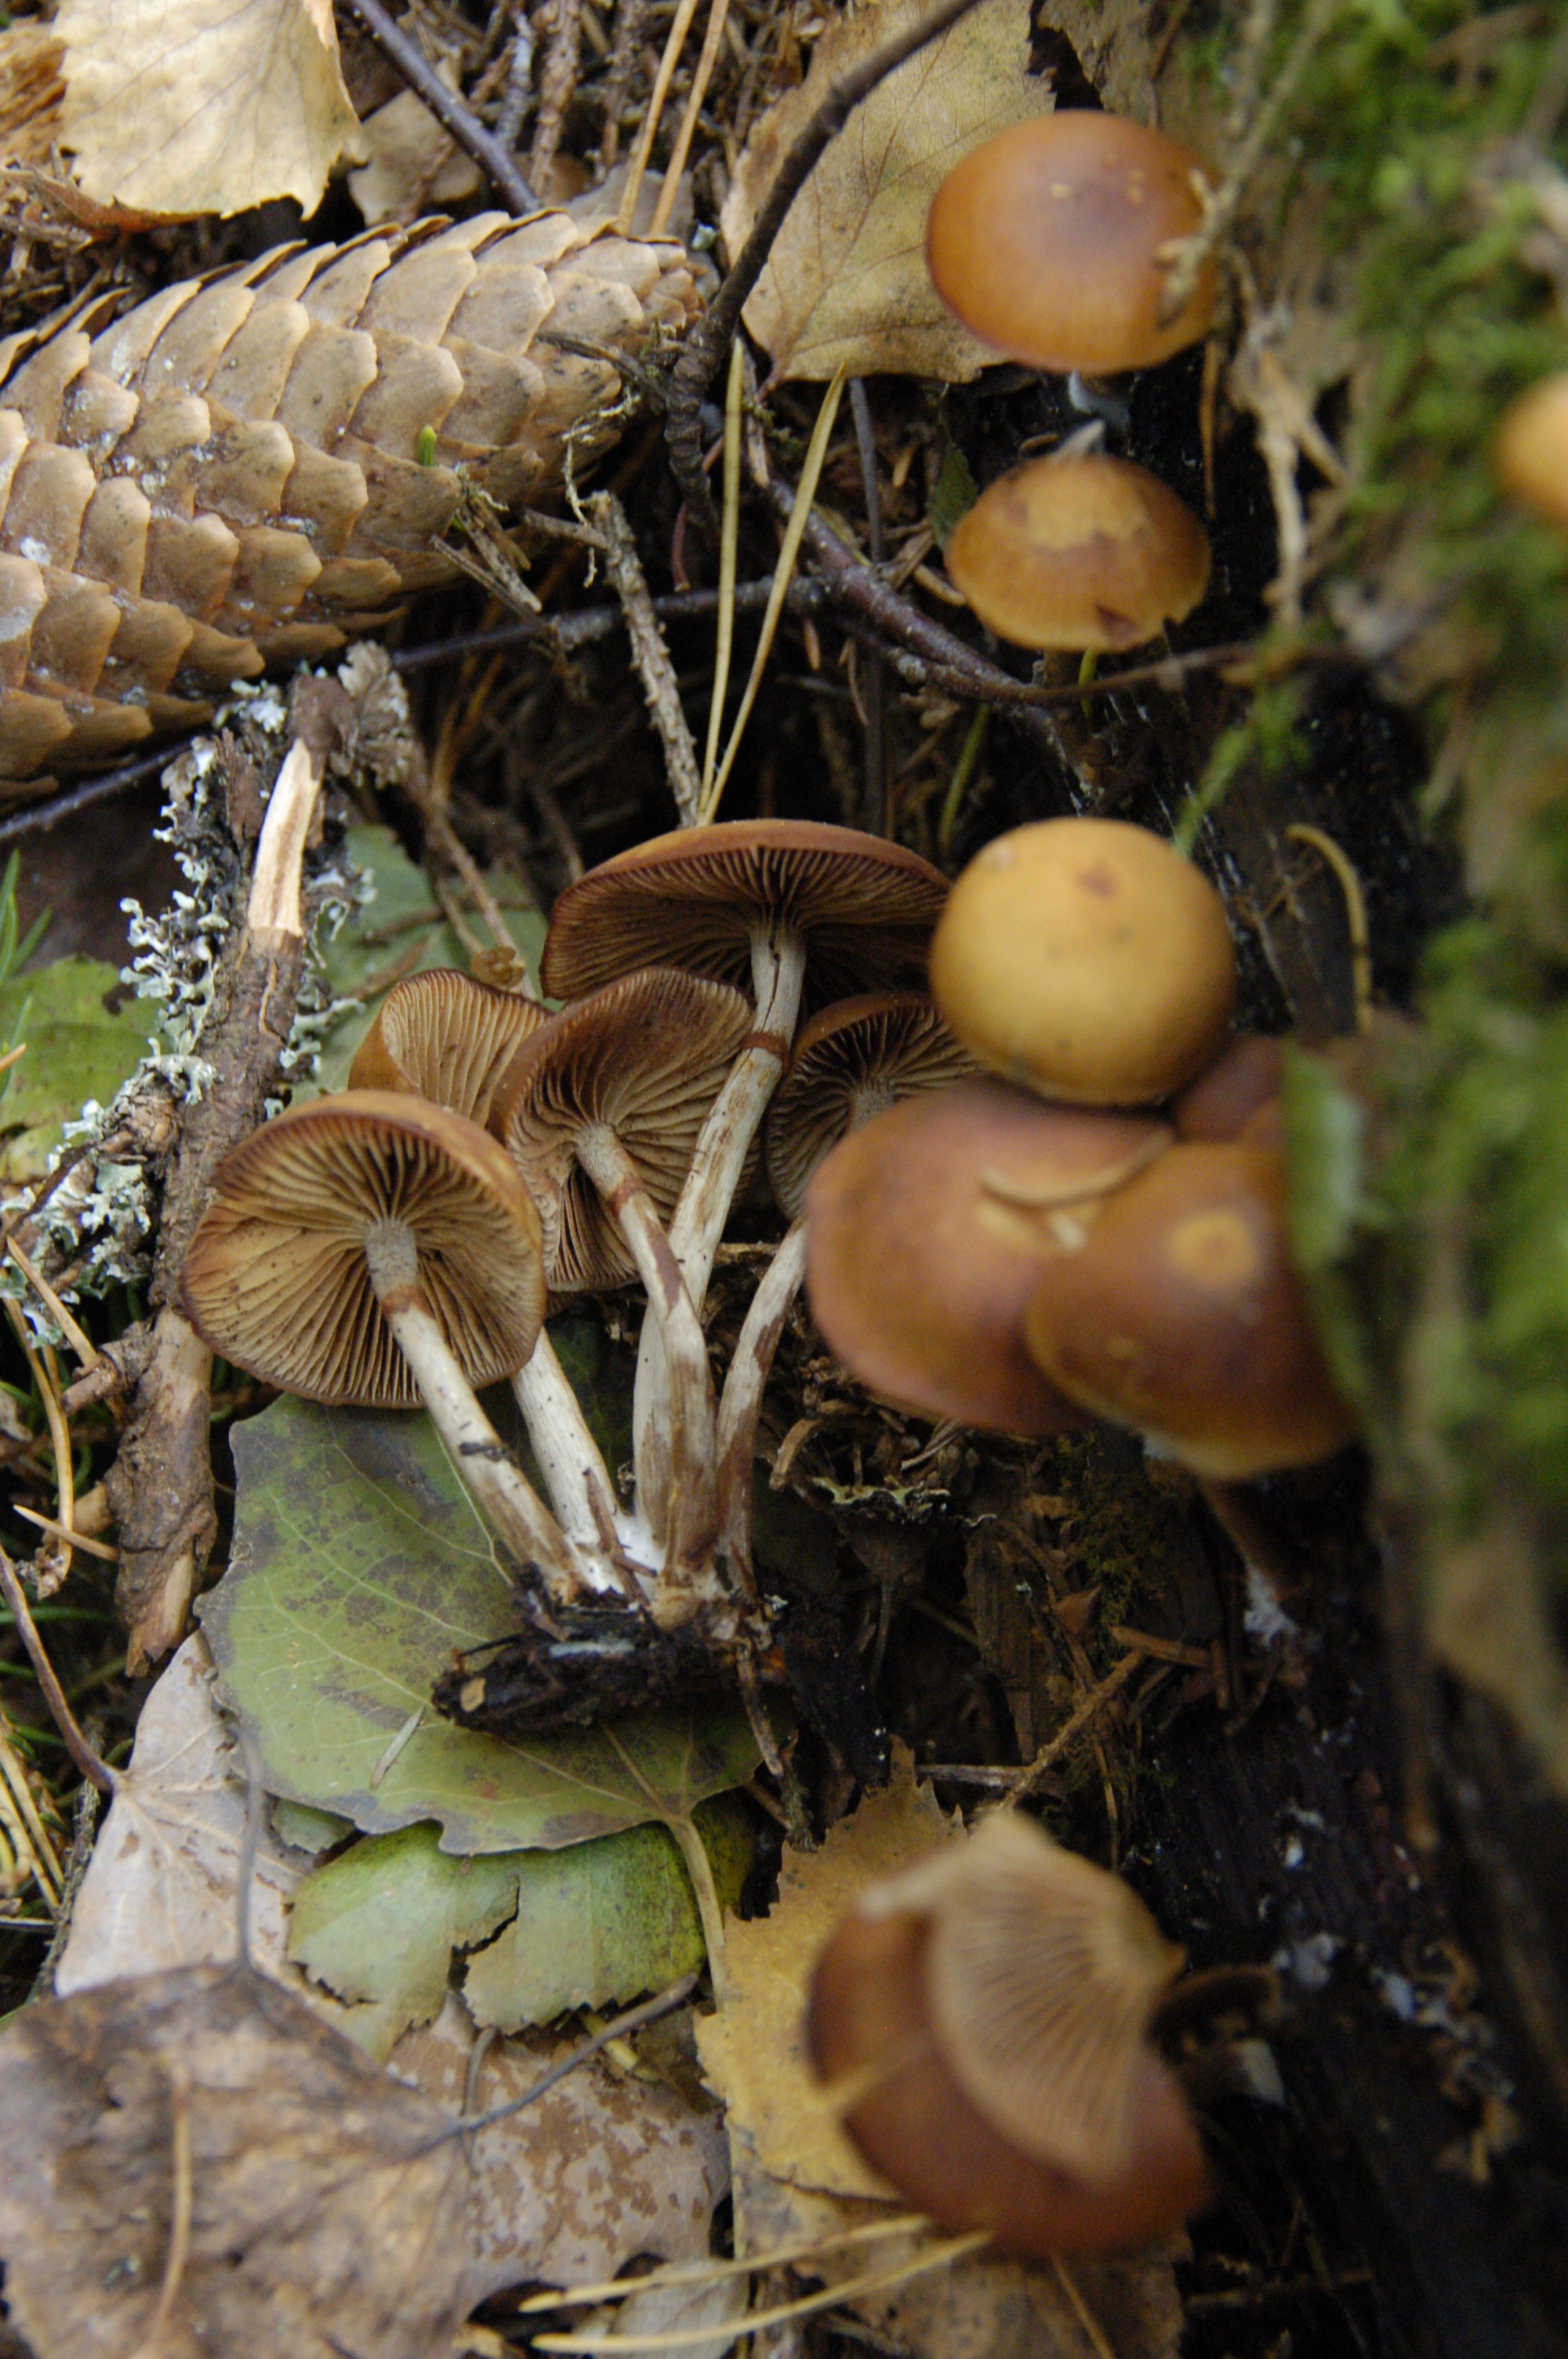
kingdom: Fungi
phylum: Basidiomycota
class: Agaricomycetes
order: Agaricales
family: Hymenogastraceae
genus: Galerina
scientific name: Galerina marginata
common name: Funeral bell
